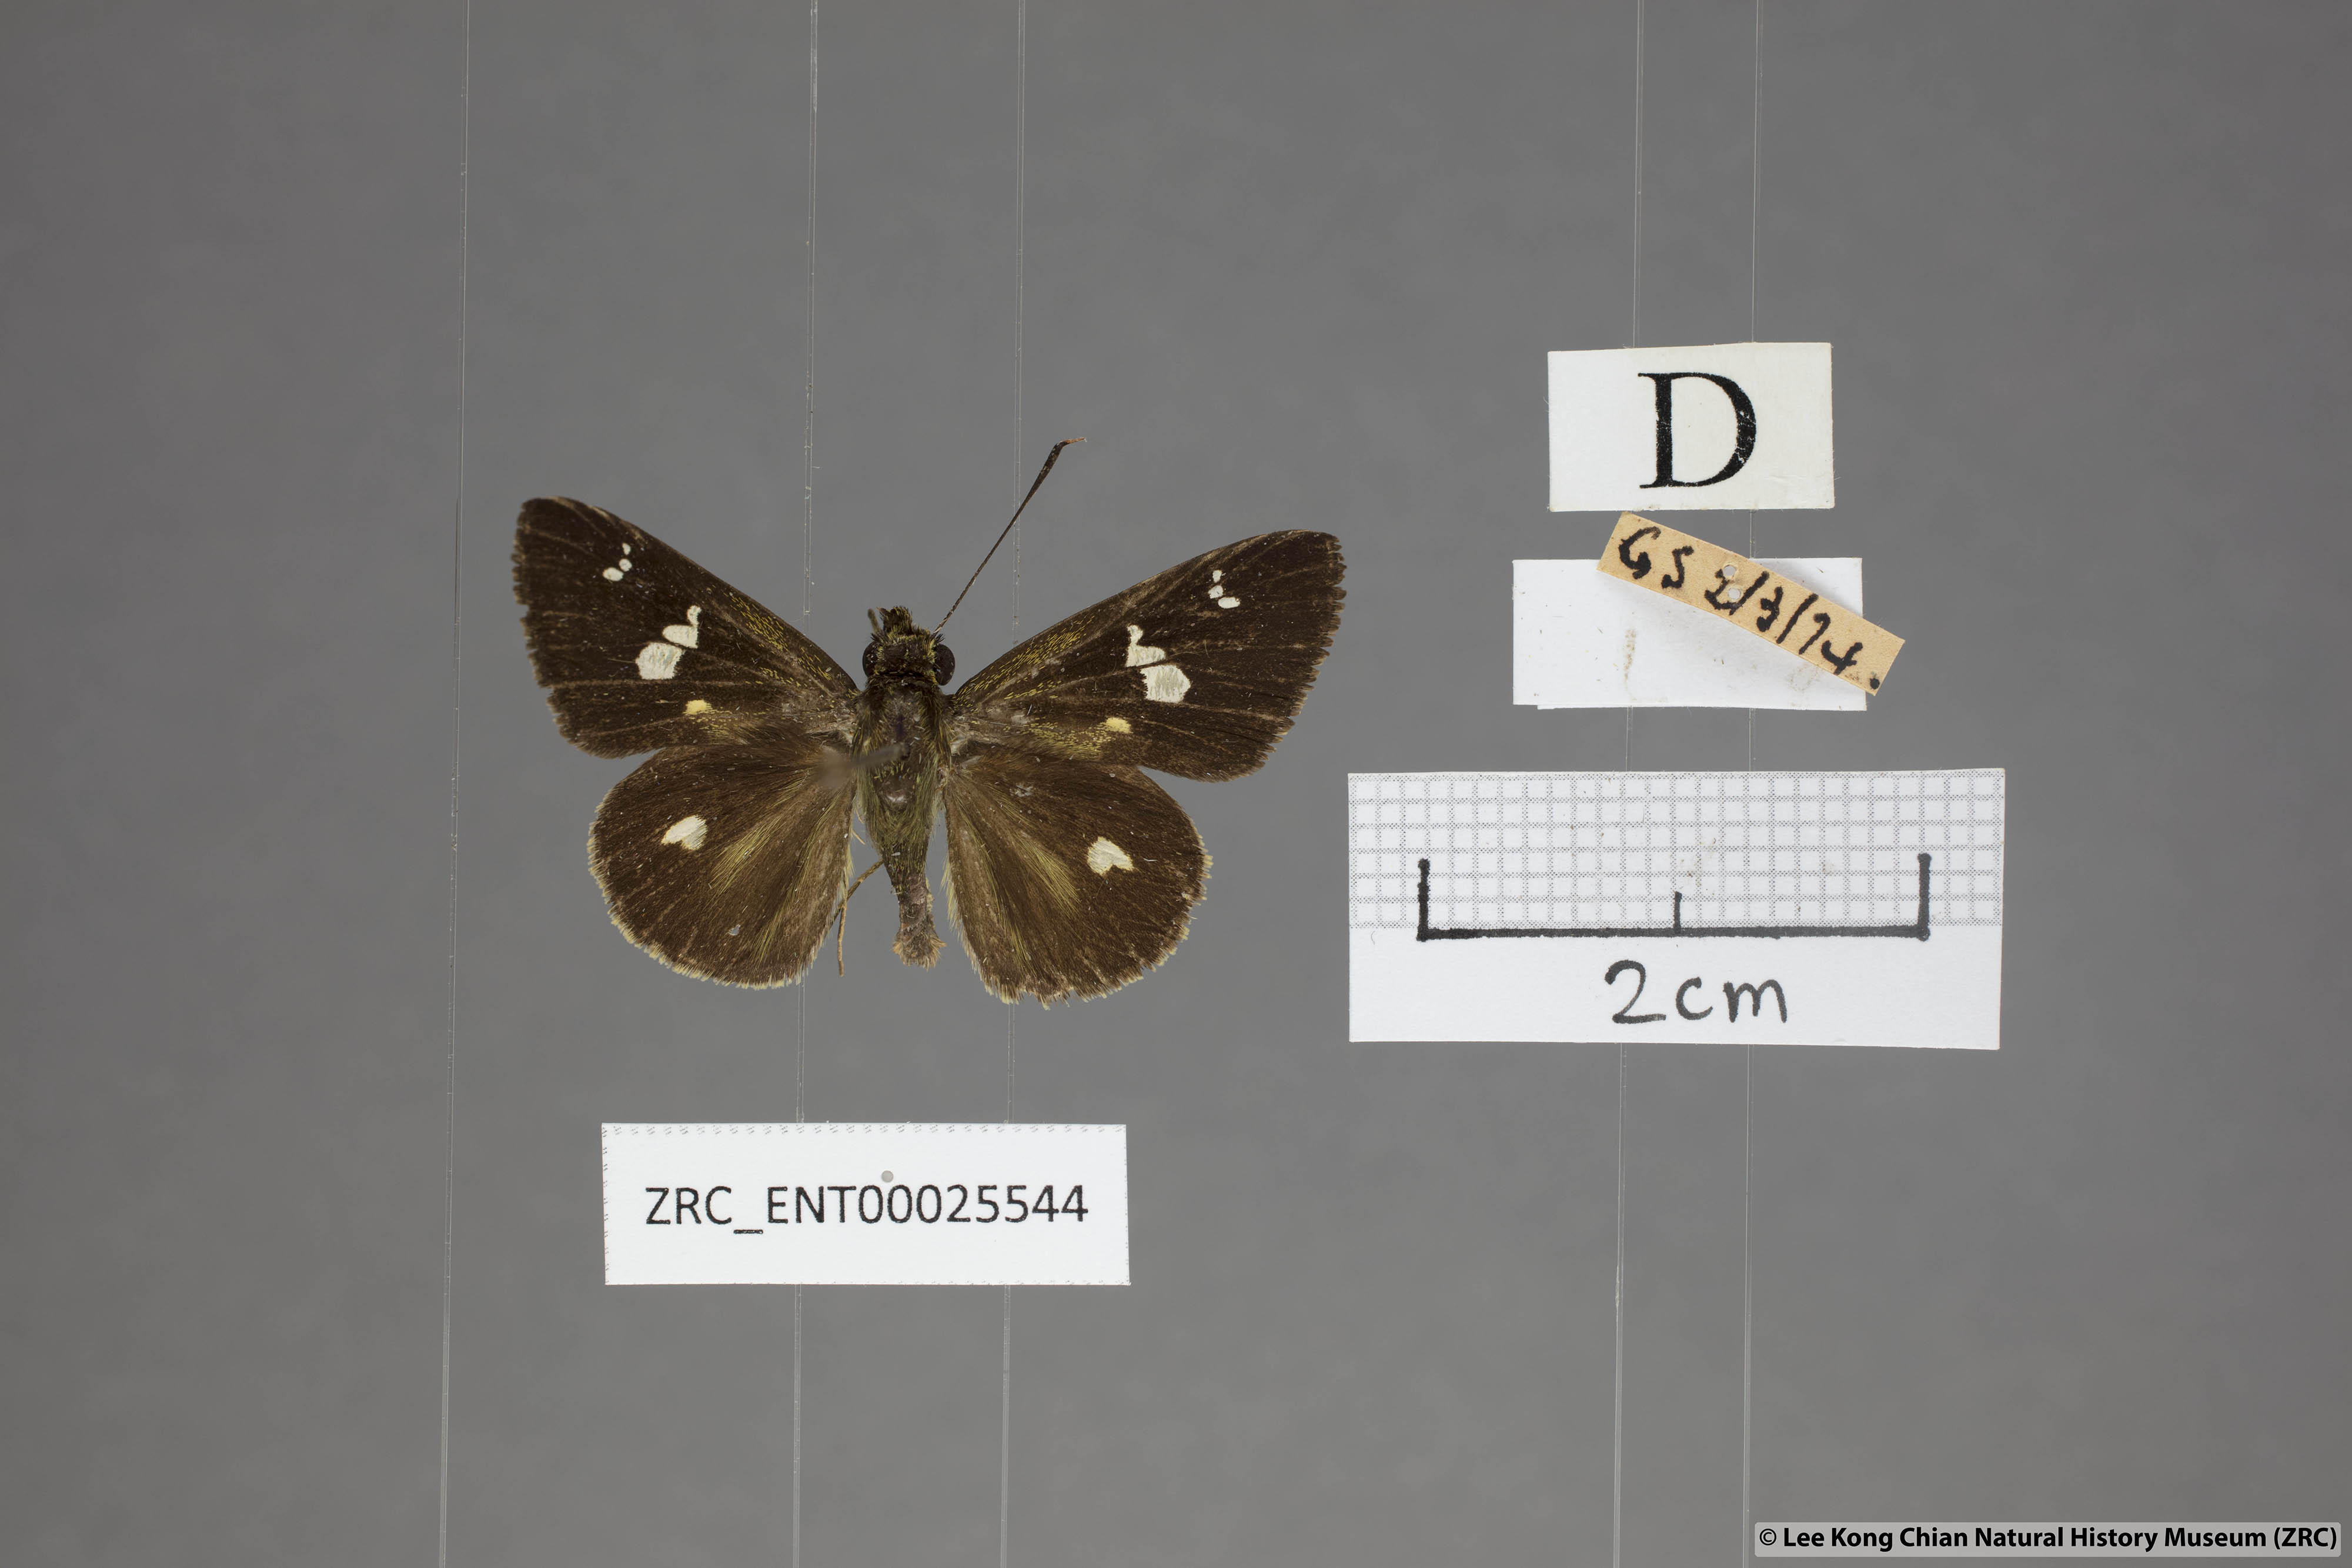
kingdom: Animalia
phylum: Arthropoda
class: Insecta
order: Lepidoptera
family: Hesperiidae
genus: Scobura
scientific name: Scobura phiditia
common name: Malay forest bob
